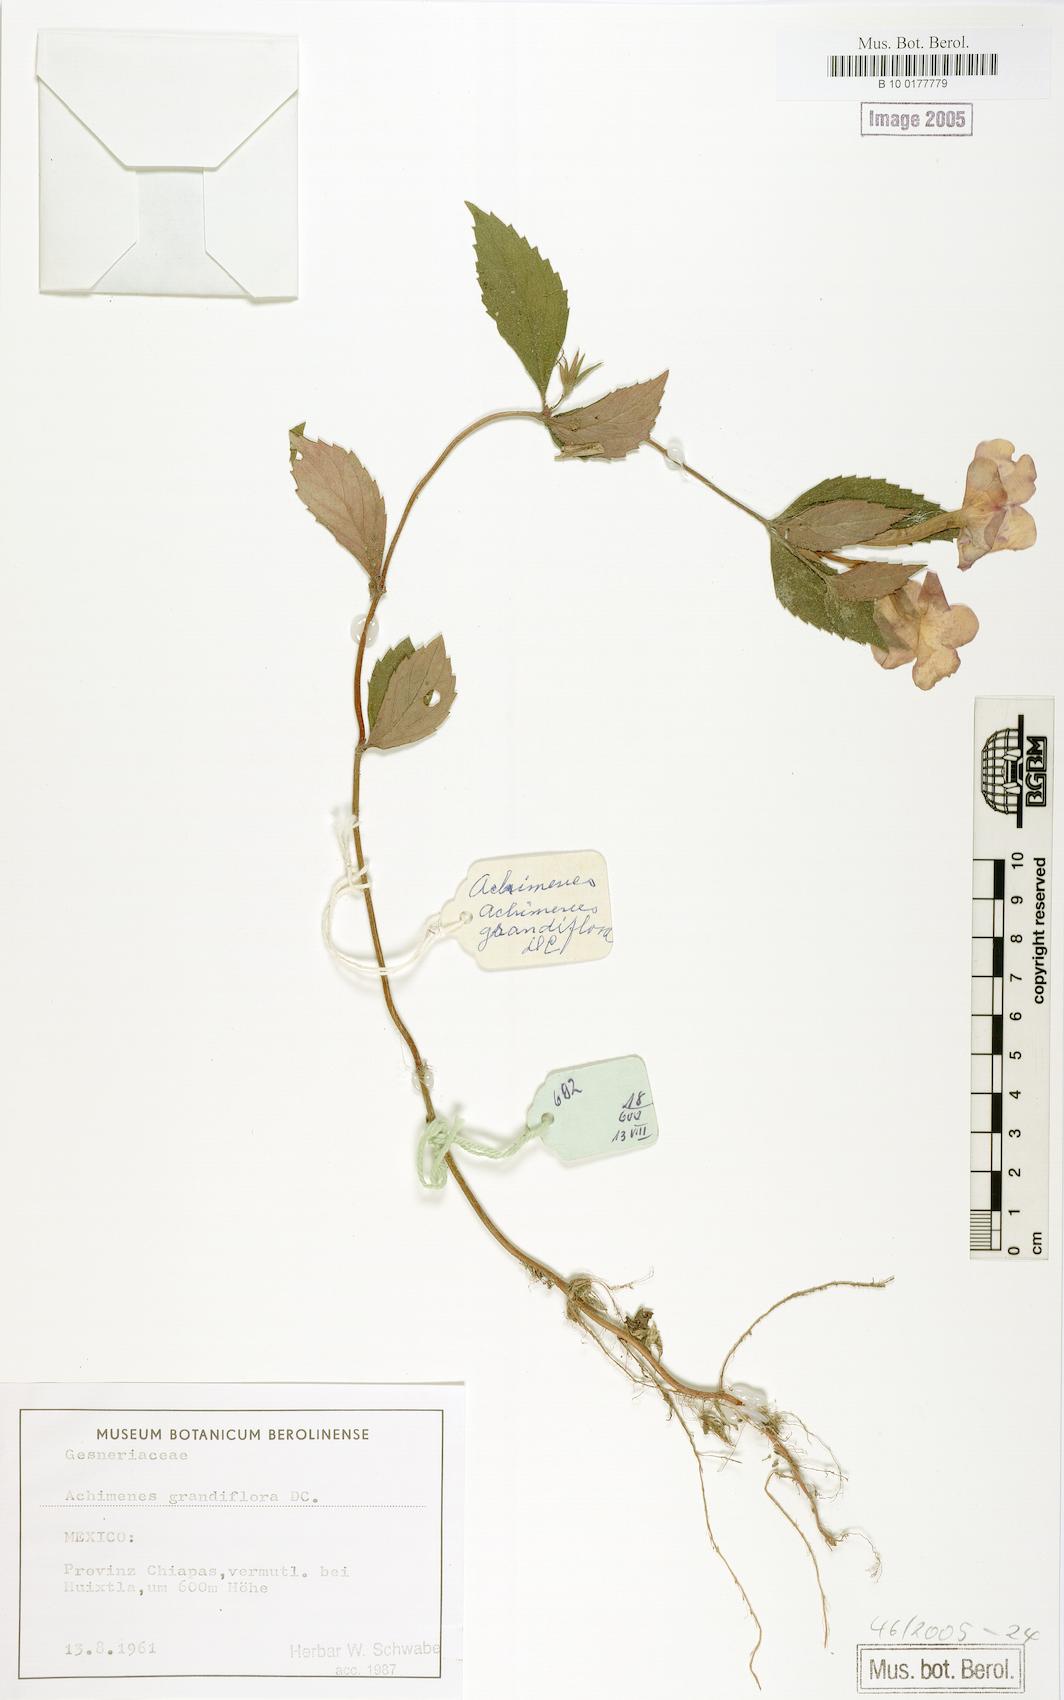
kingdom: Plantae
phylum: Tracheophyta
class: Magnoliopsida
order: Lamiales
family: Gesneriaceae
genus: Achimenes
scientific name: Achimenes grandiflora
